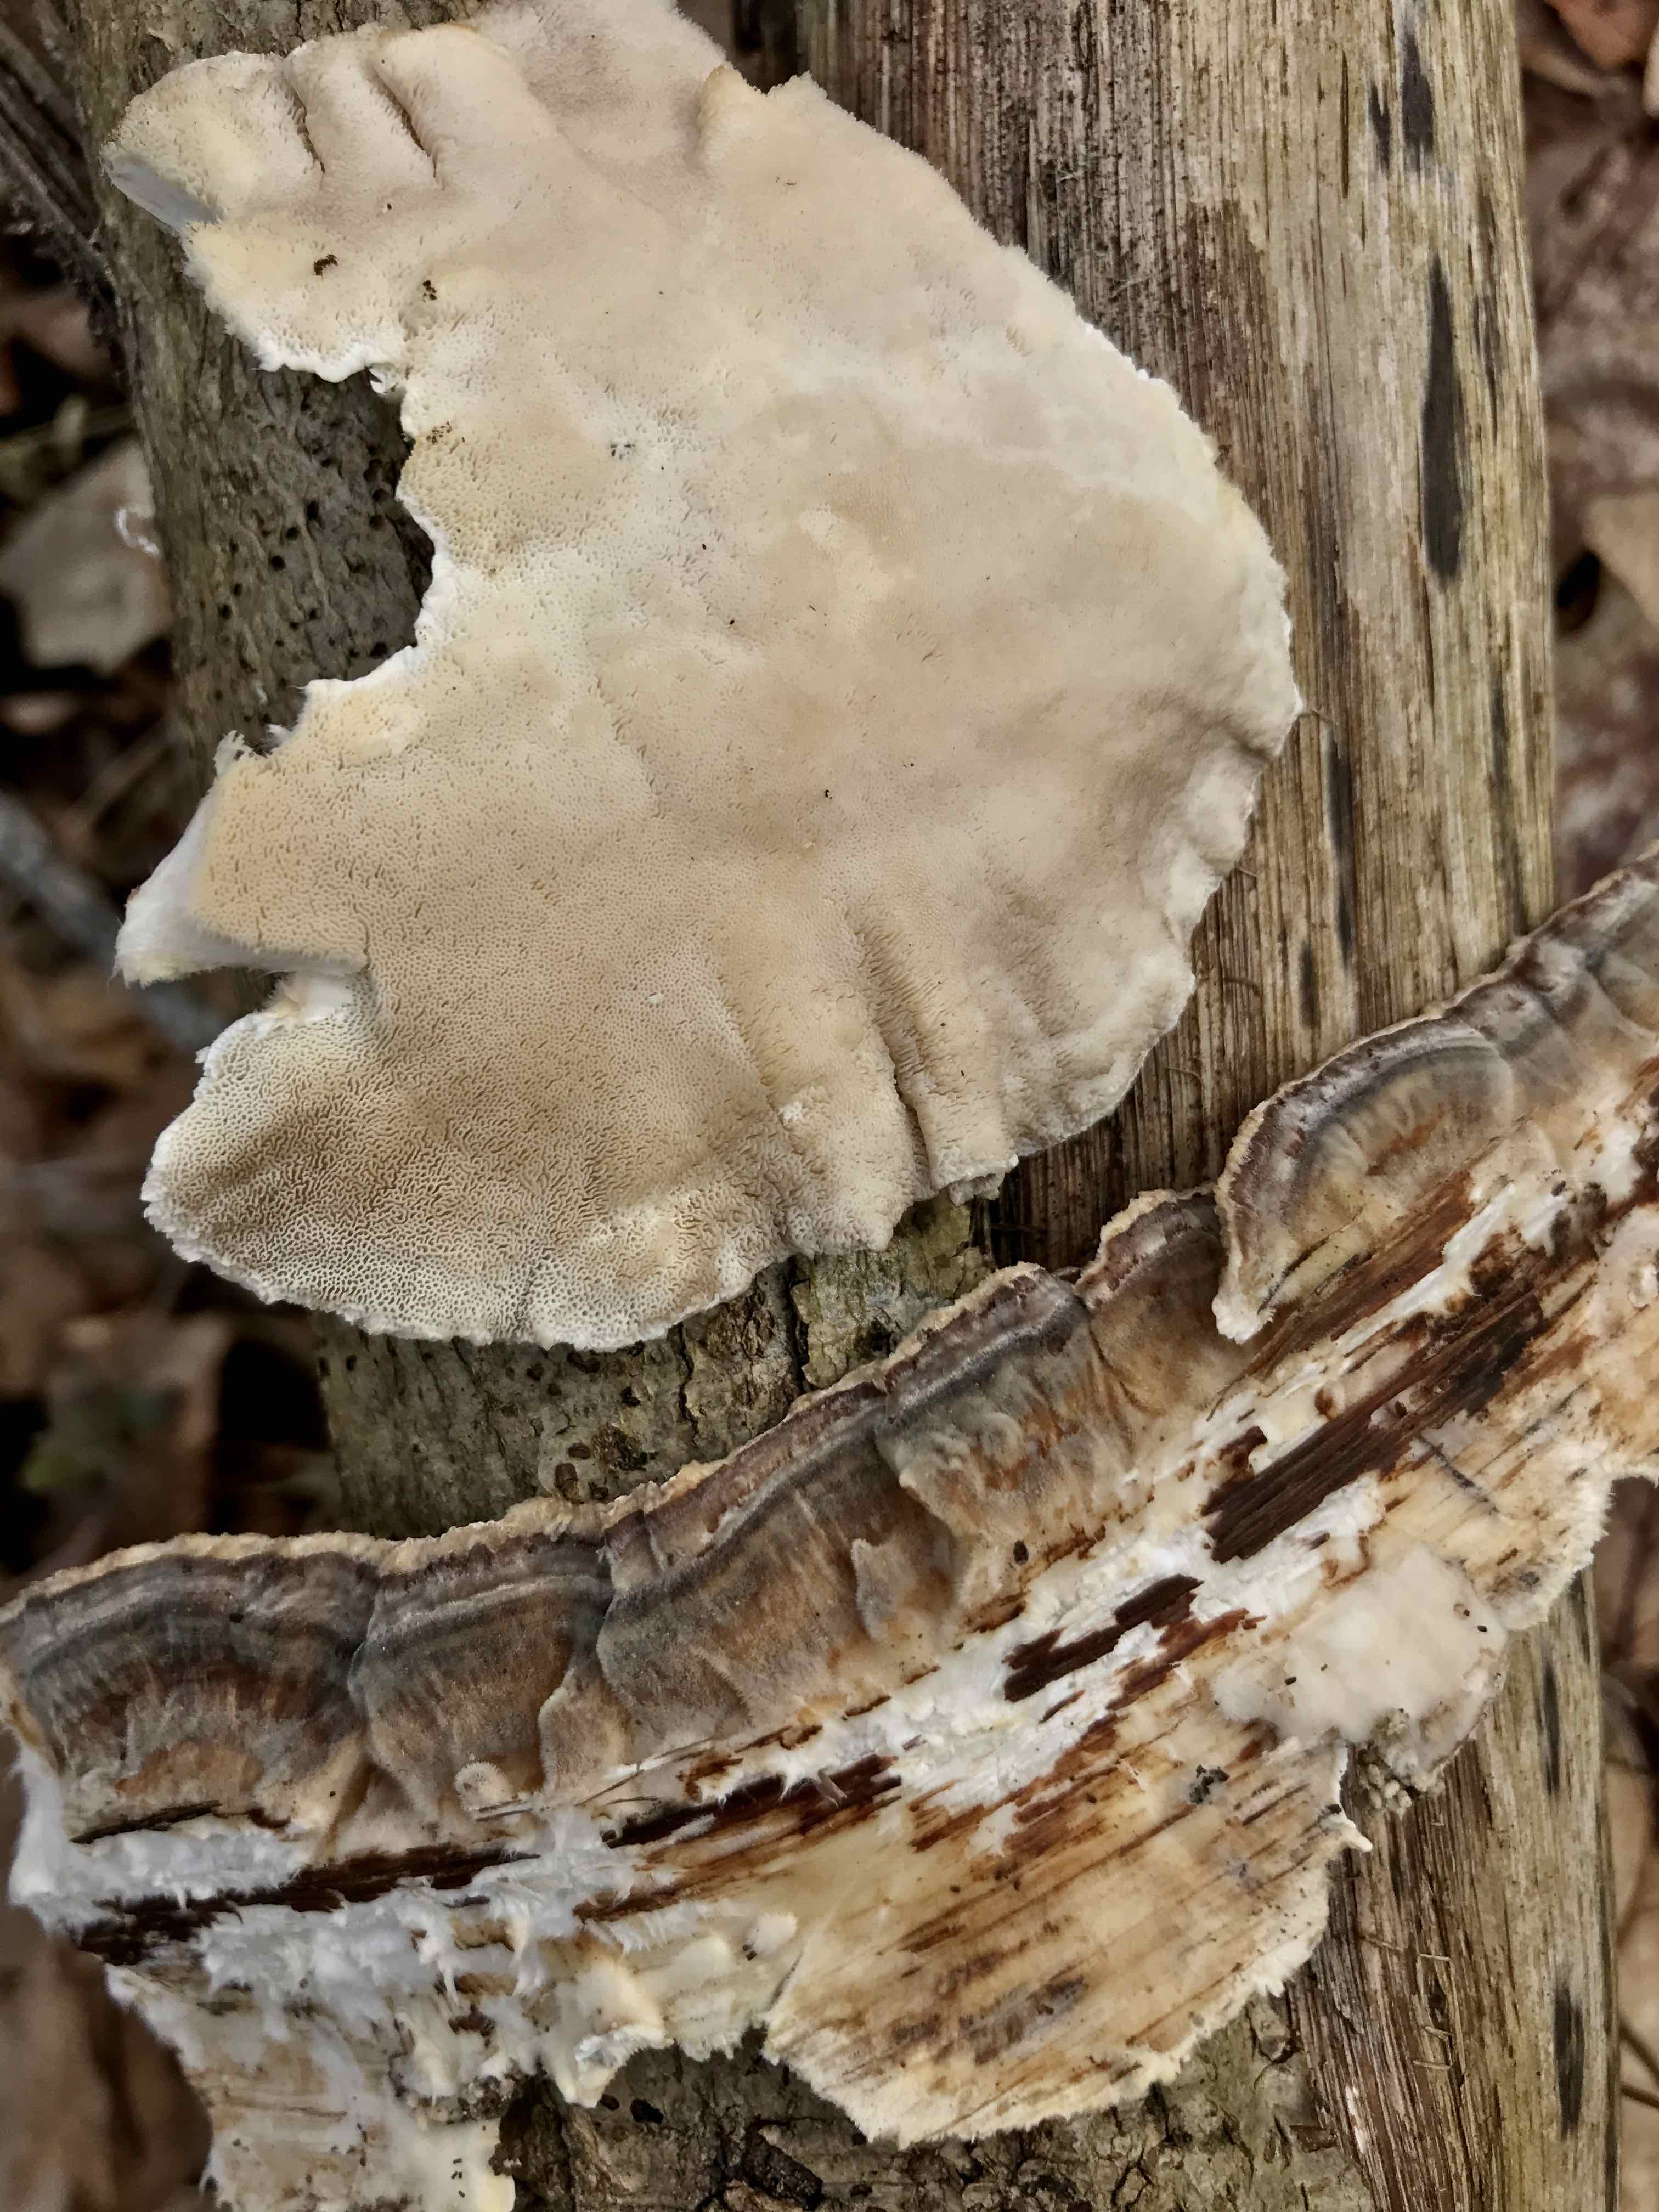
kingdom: Fungi
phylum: Basidiomycota
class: Agaricomycetes
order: Polyporales
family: Polyporaceae
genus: Trametes
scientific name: Trametes versicolor
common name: broget læderporesvamp
